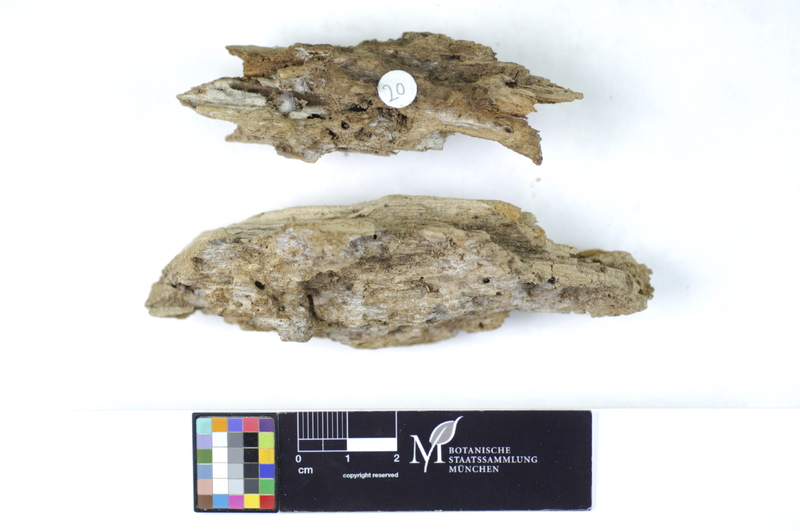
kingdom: Fungi
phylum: Basidiomycota
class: Agaricomycetes
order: Hymenochaetales
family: Rickenellaceae
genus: Peniophorella
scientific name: Peniophorella praetermissa
